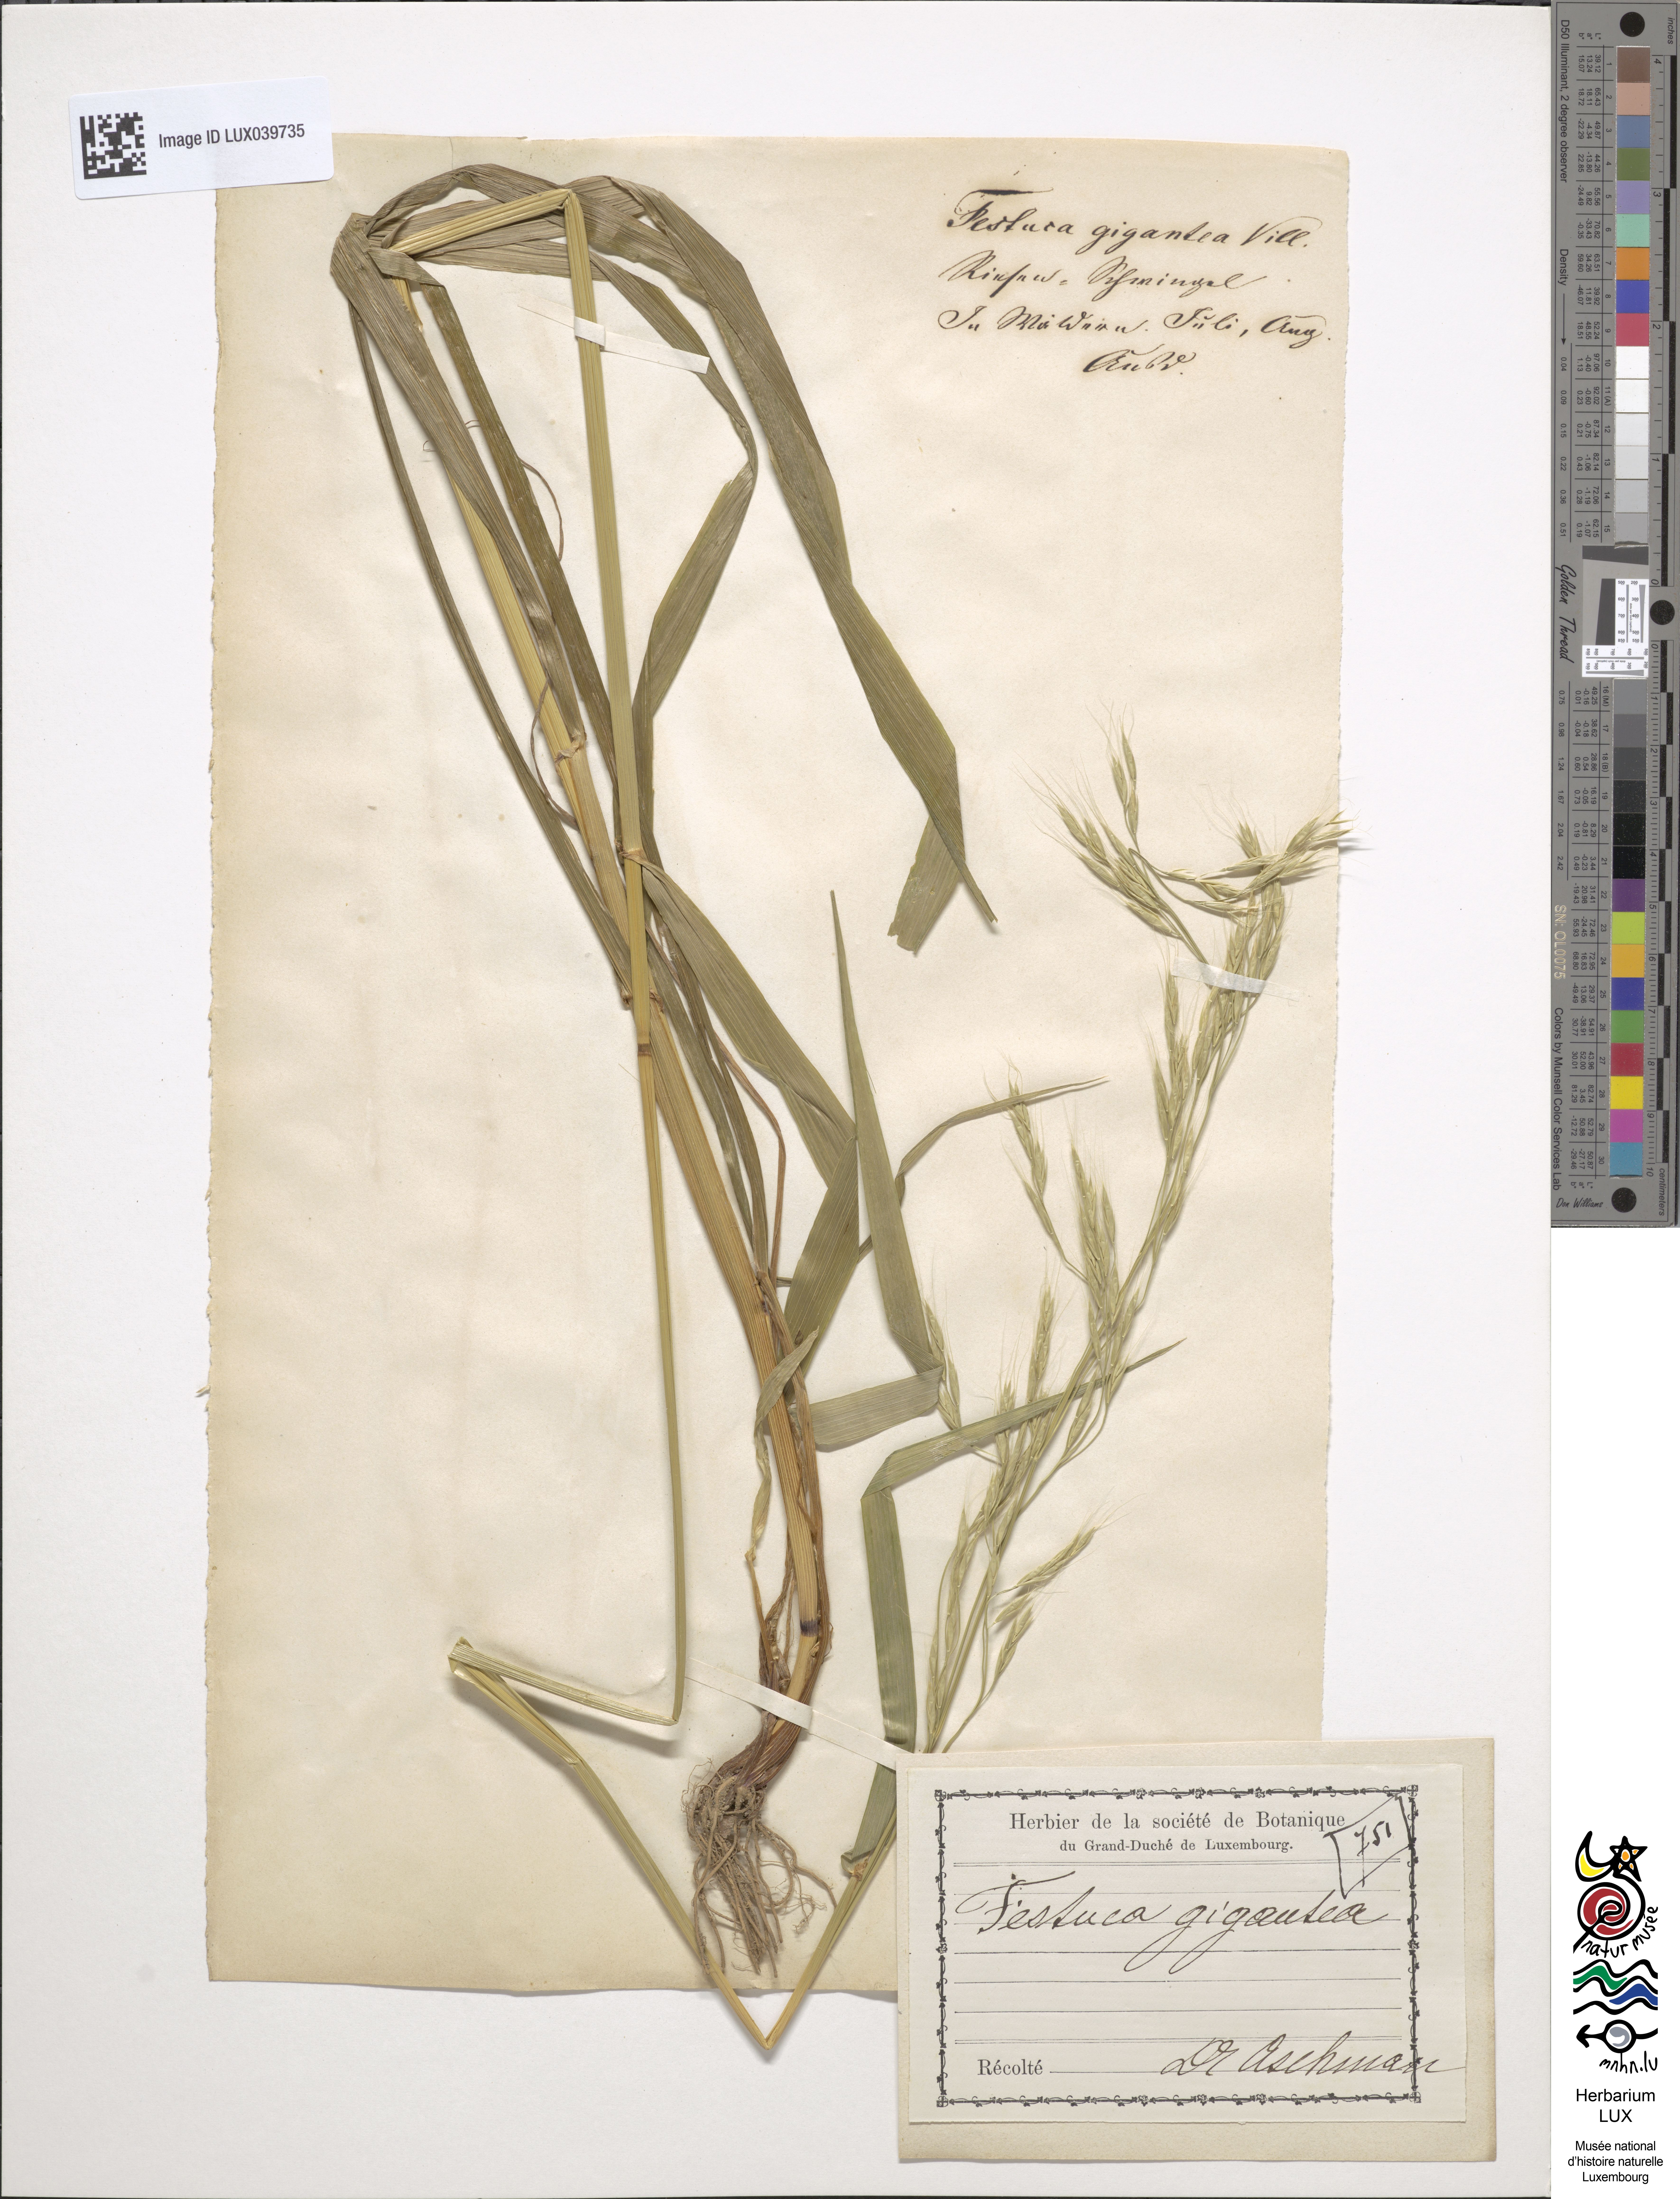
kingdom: Plantae
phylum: Tracheophyta
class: Liliopsida
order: Poales
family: Poaceae
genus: Lolium
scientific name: Lolium giganteum
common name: Giant fescue
